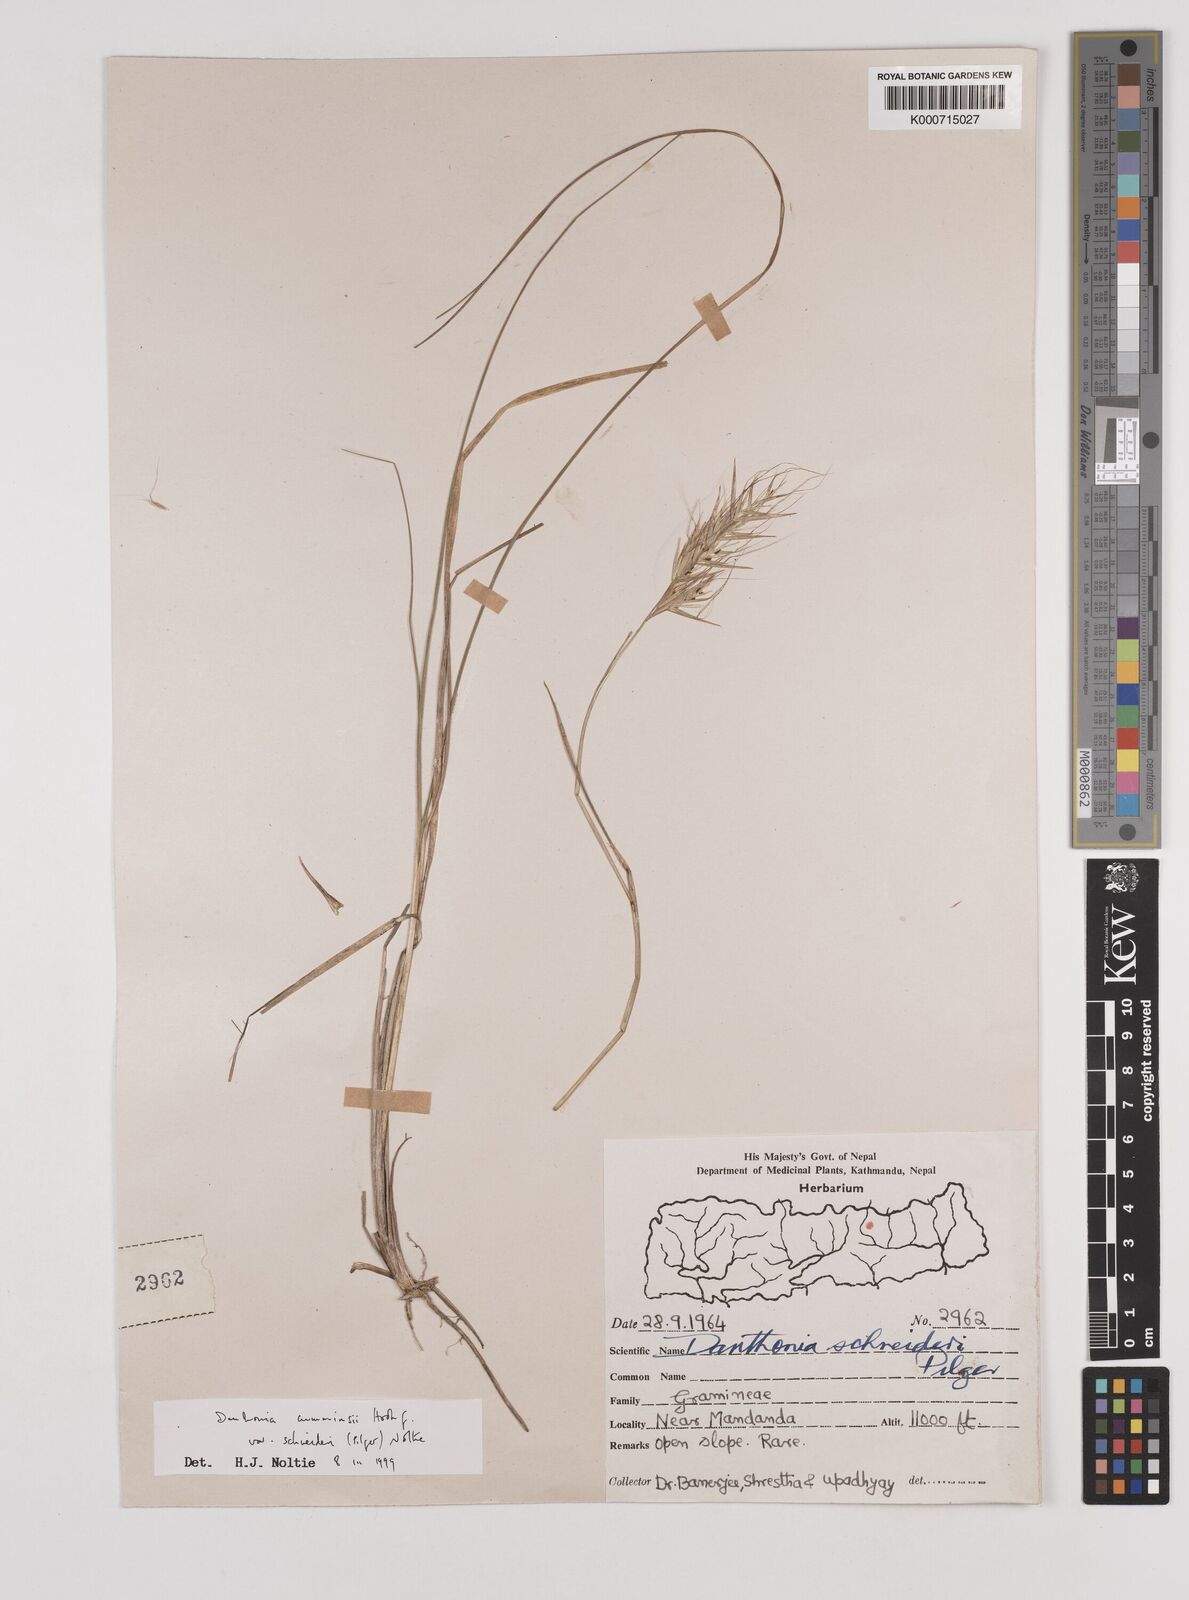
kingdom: Plantae
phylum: Tracheophyta
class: Liliopsida
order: Poales
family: Poaceae
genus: Rytidosperma
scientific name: Rytidosperma
